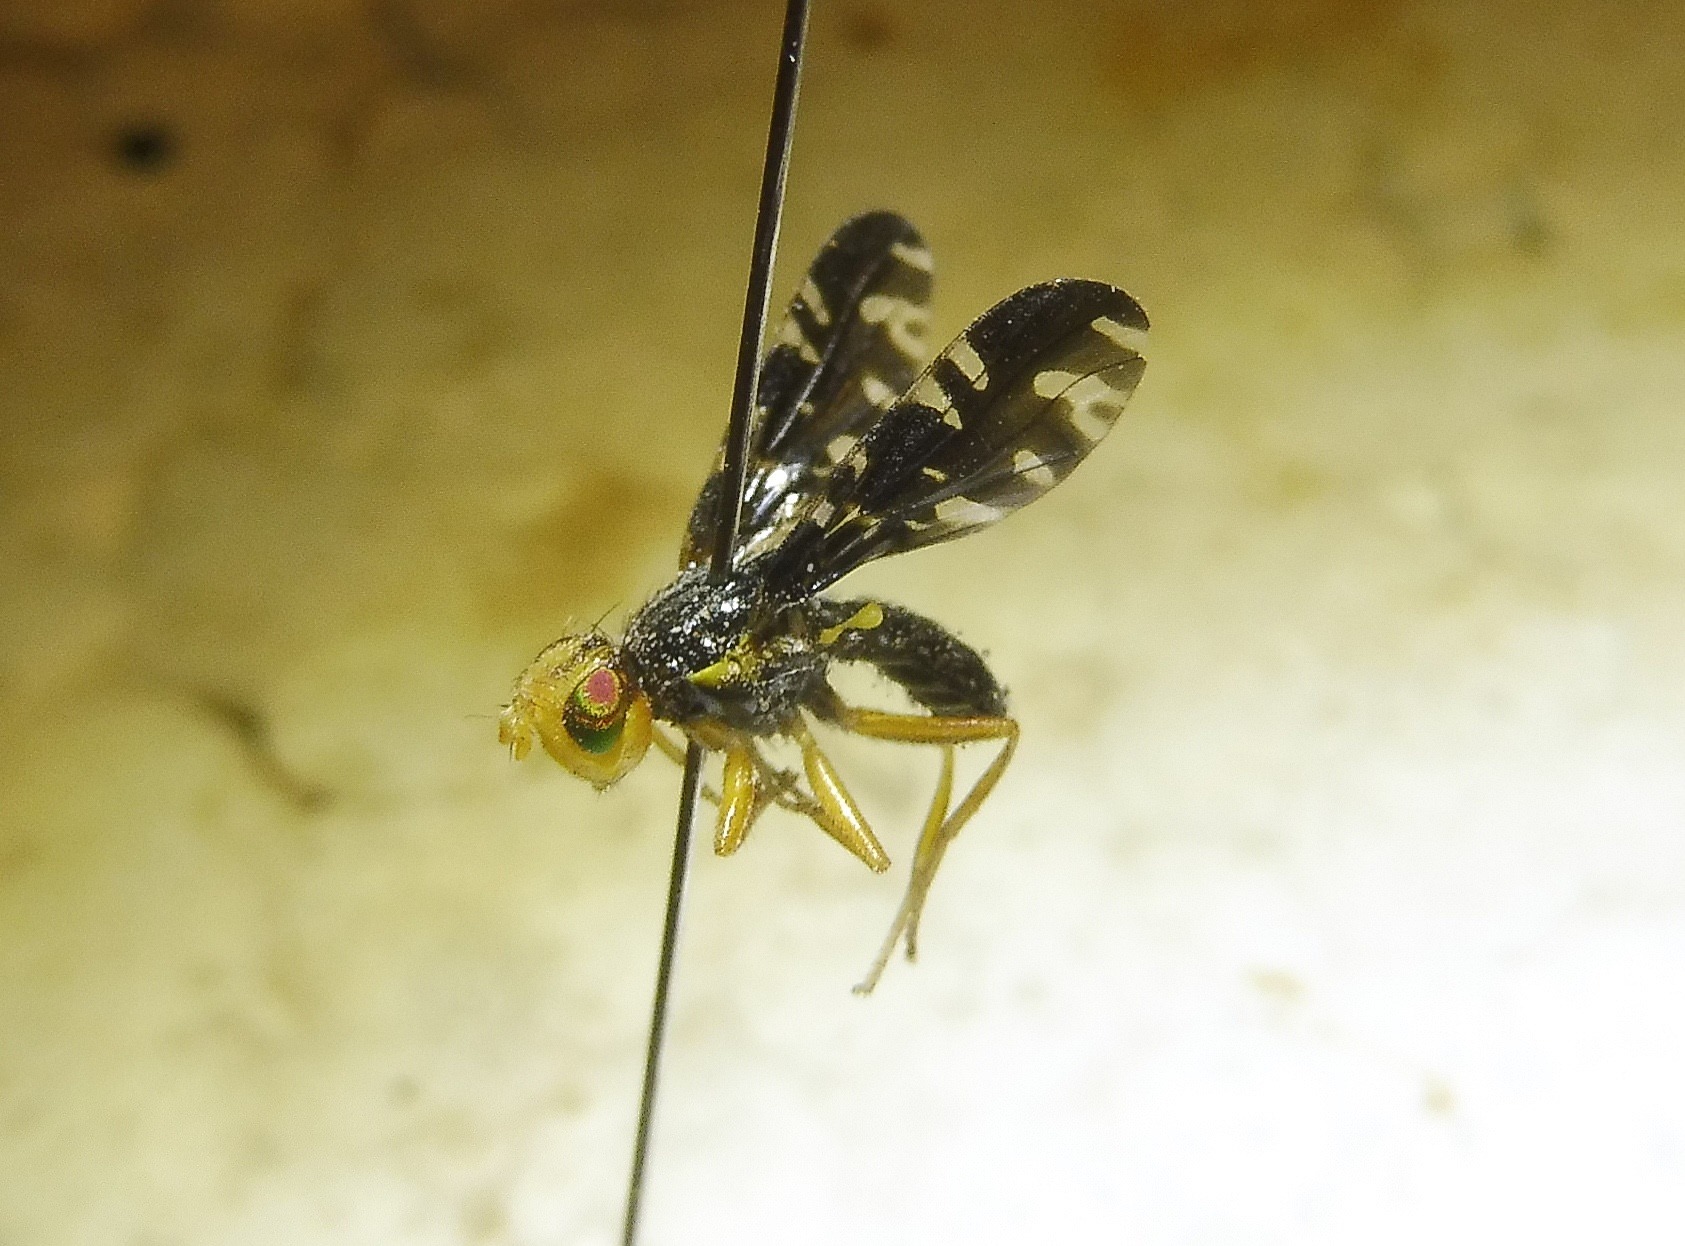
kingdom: Animalia
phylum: Arthropoda
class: Insecta
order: Diptera
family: Tephritidae
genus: Platyparea
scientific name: Platyparea discoidea
